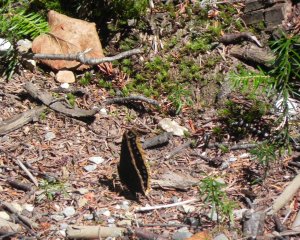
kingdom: Animalia
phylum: Arthropoda
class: Insecta
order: Lepidoptera
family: Nymphalidae
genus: Nymphalis
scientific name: Nymphalis antiopa
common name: Mourning Cloak
